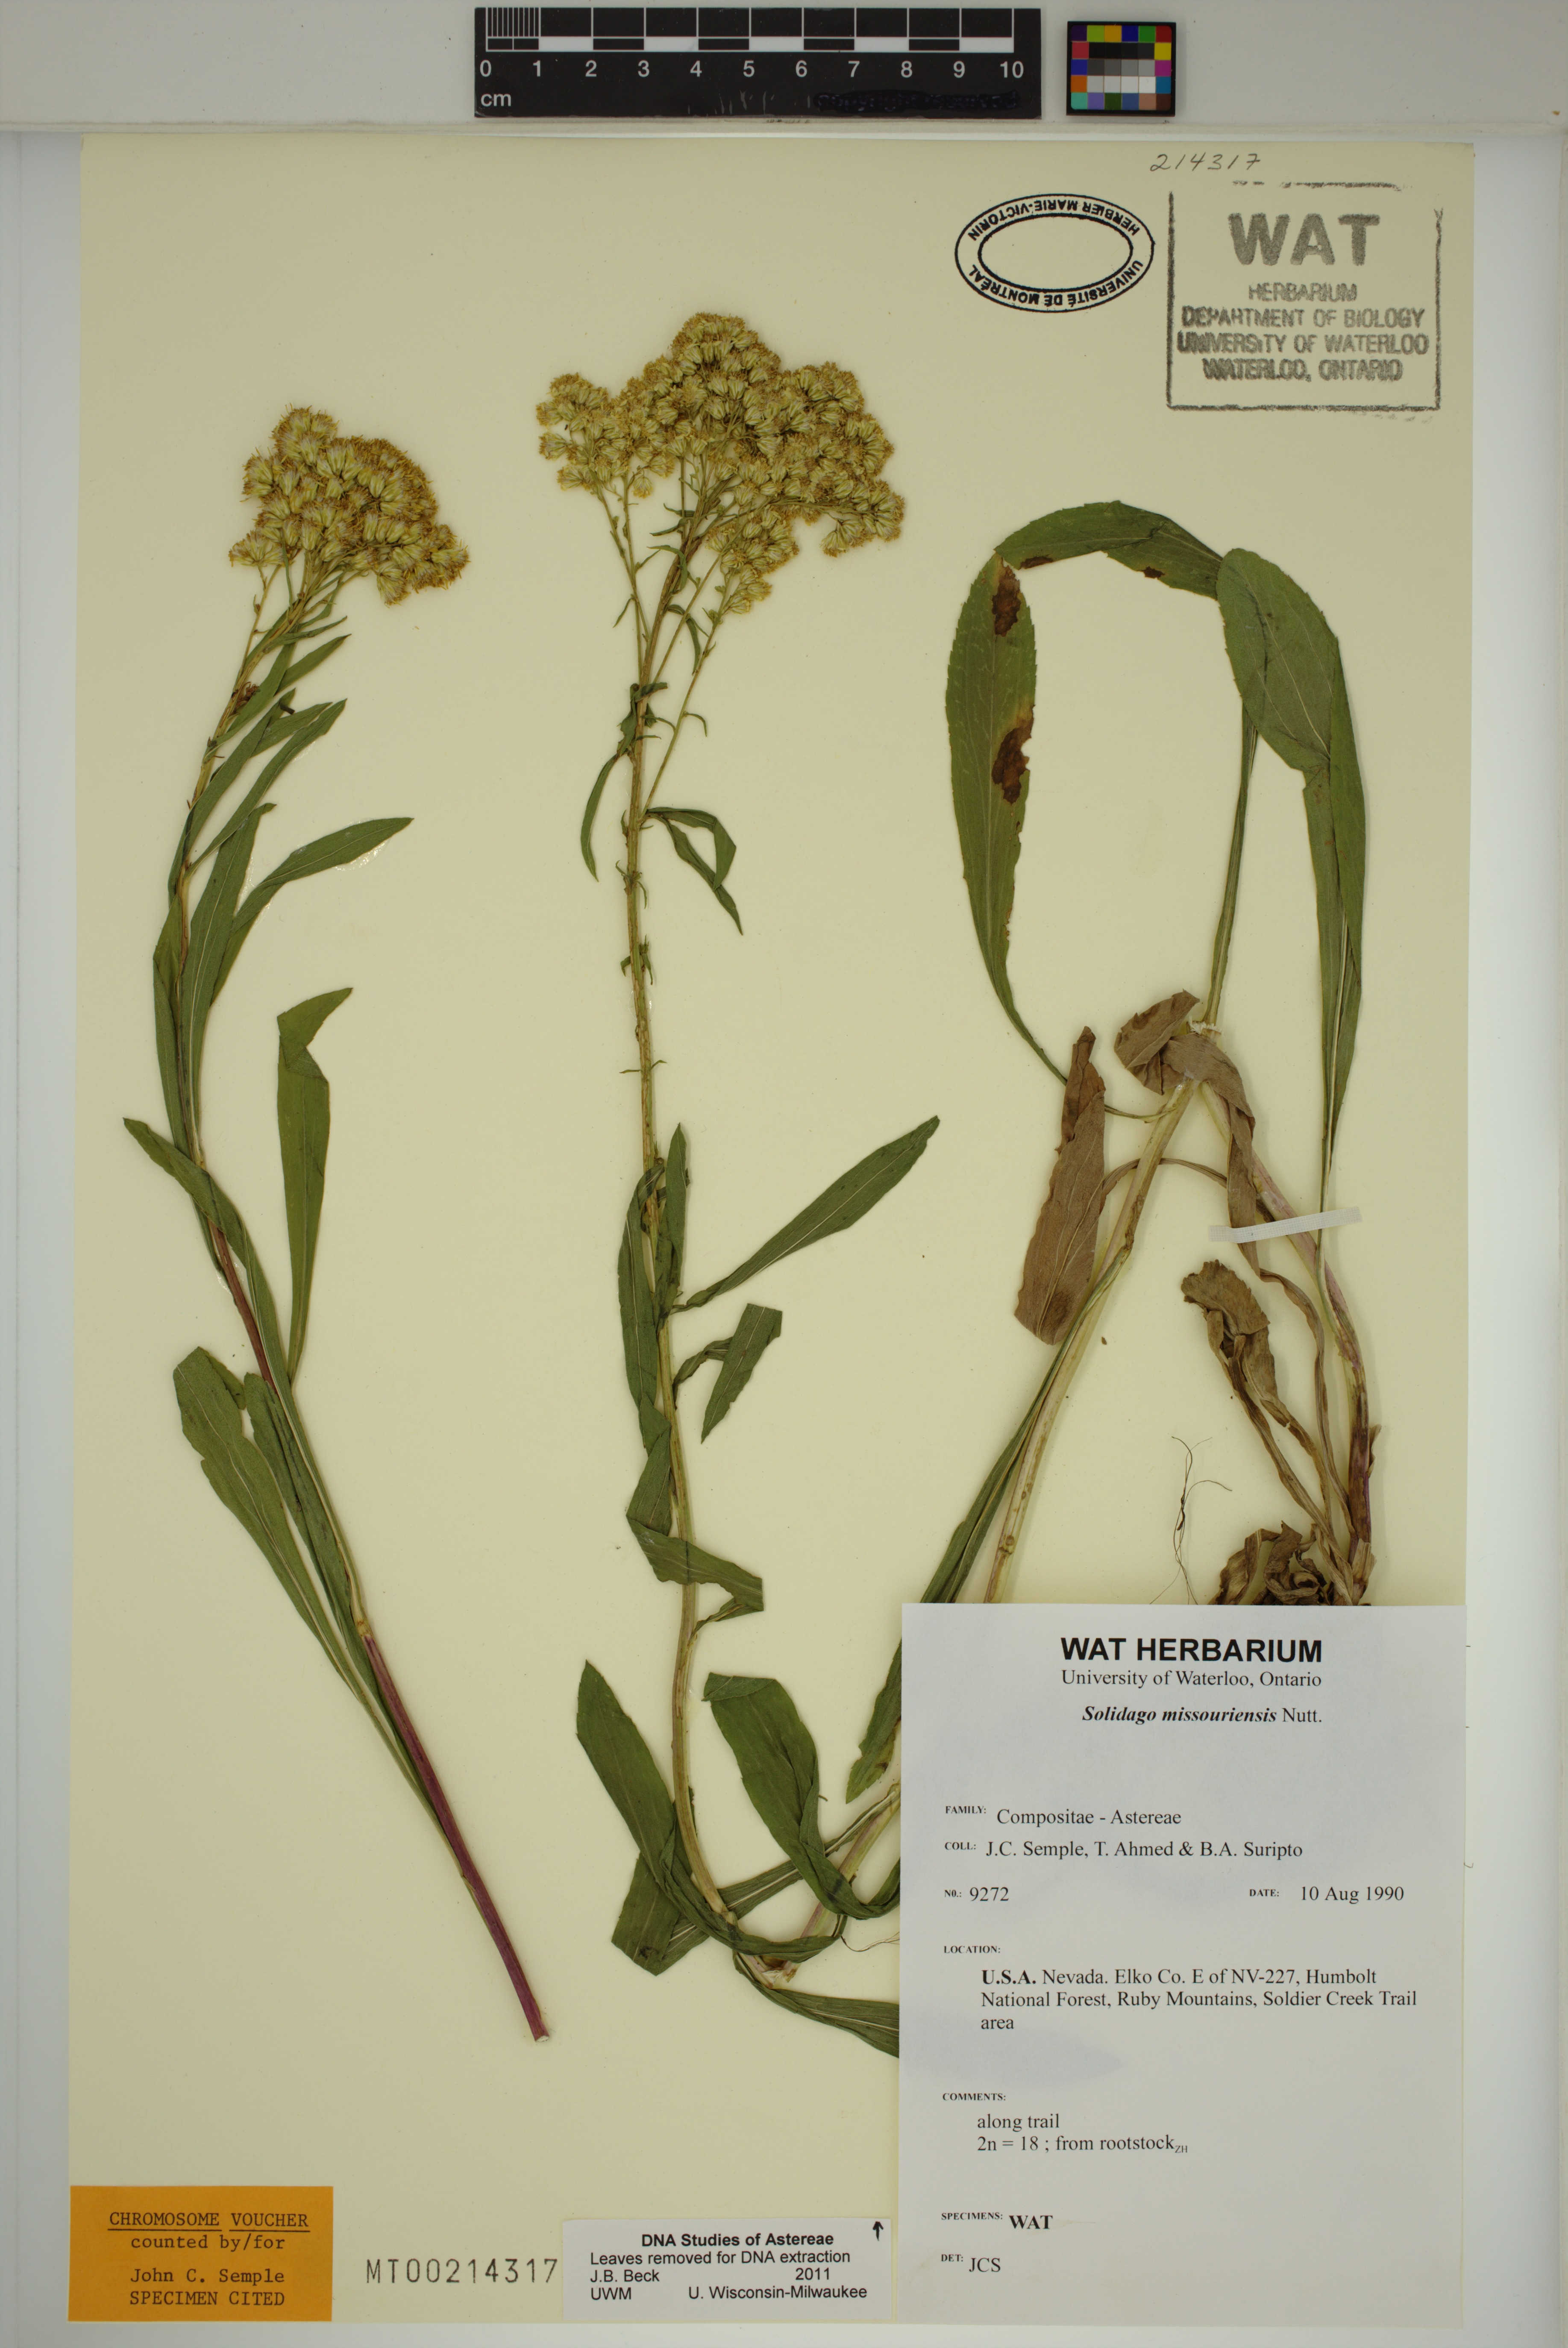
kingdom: Plantae
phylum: Tracheophyta
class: Magnoliopsida
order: Asterales
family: Asteraceae
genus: Solidago
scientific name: Solidago missouriensis
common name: Prairie goldenrod
